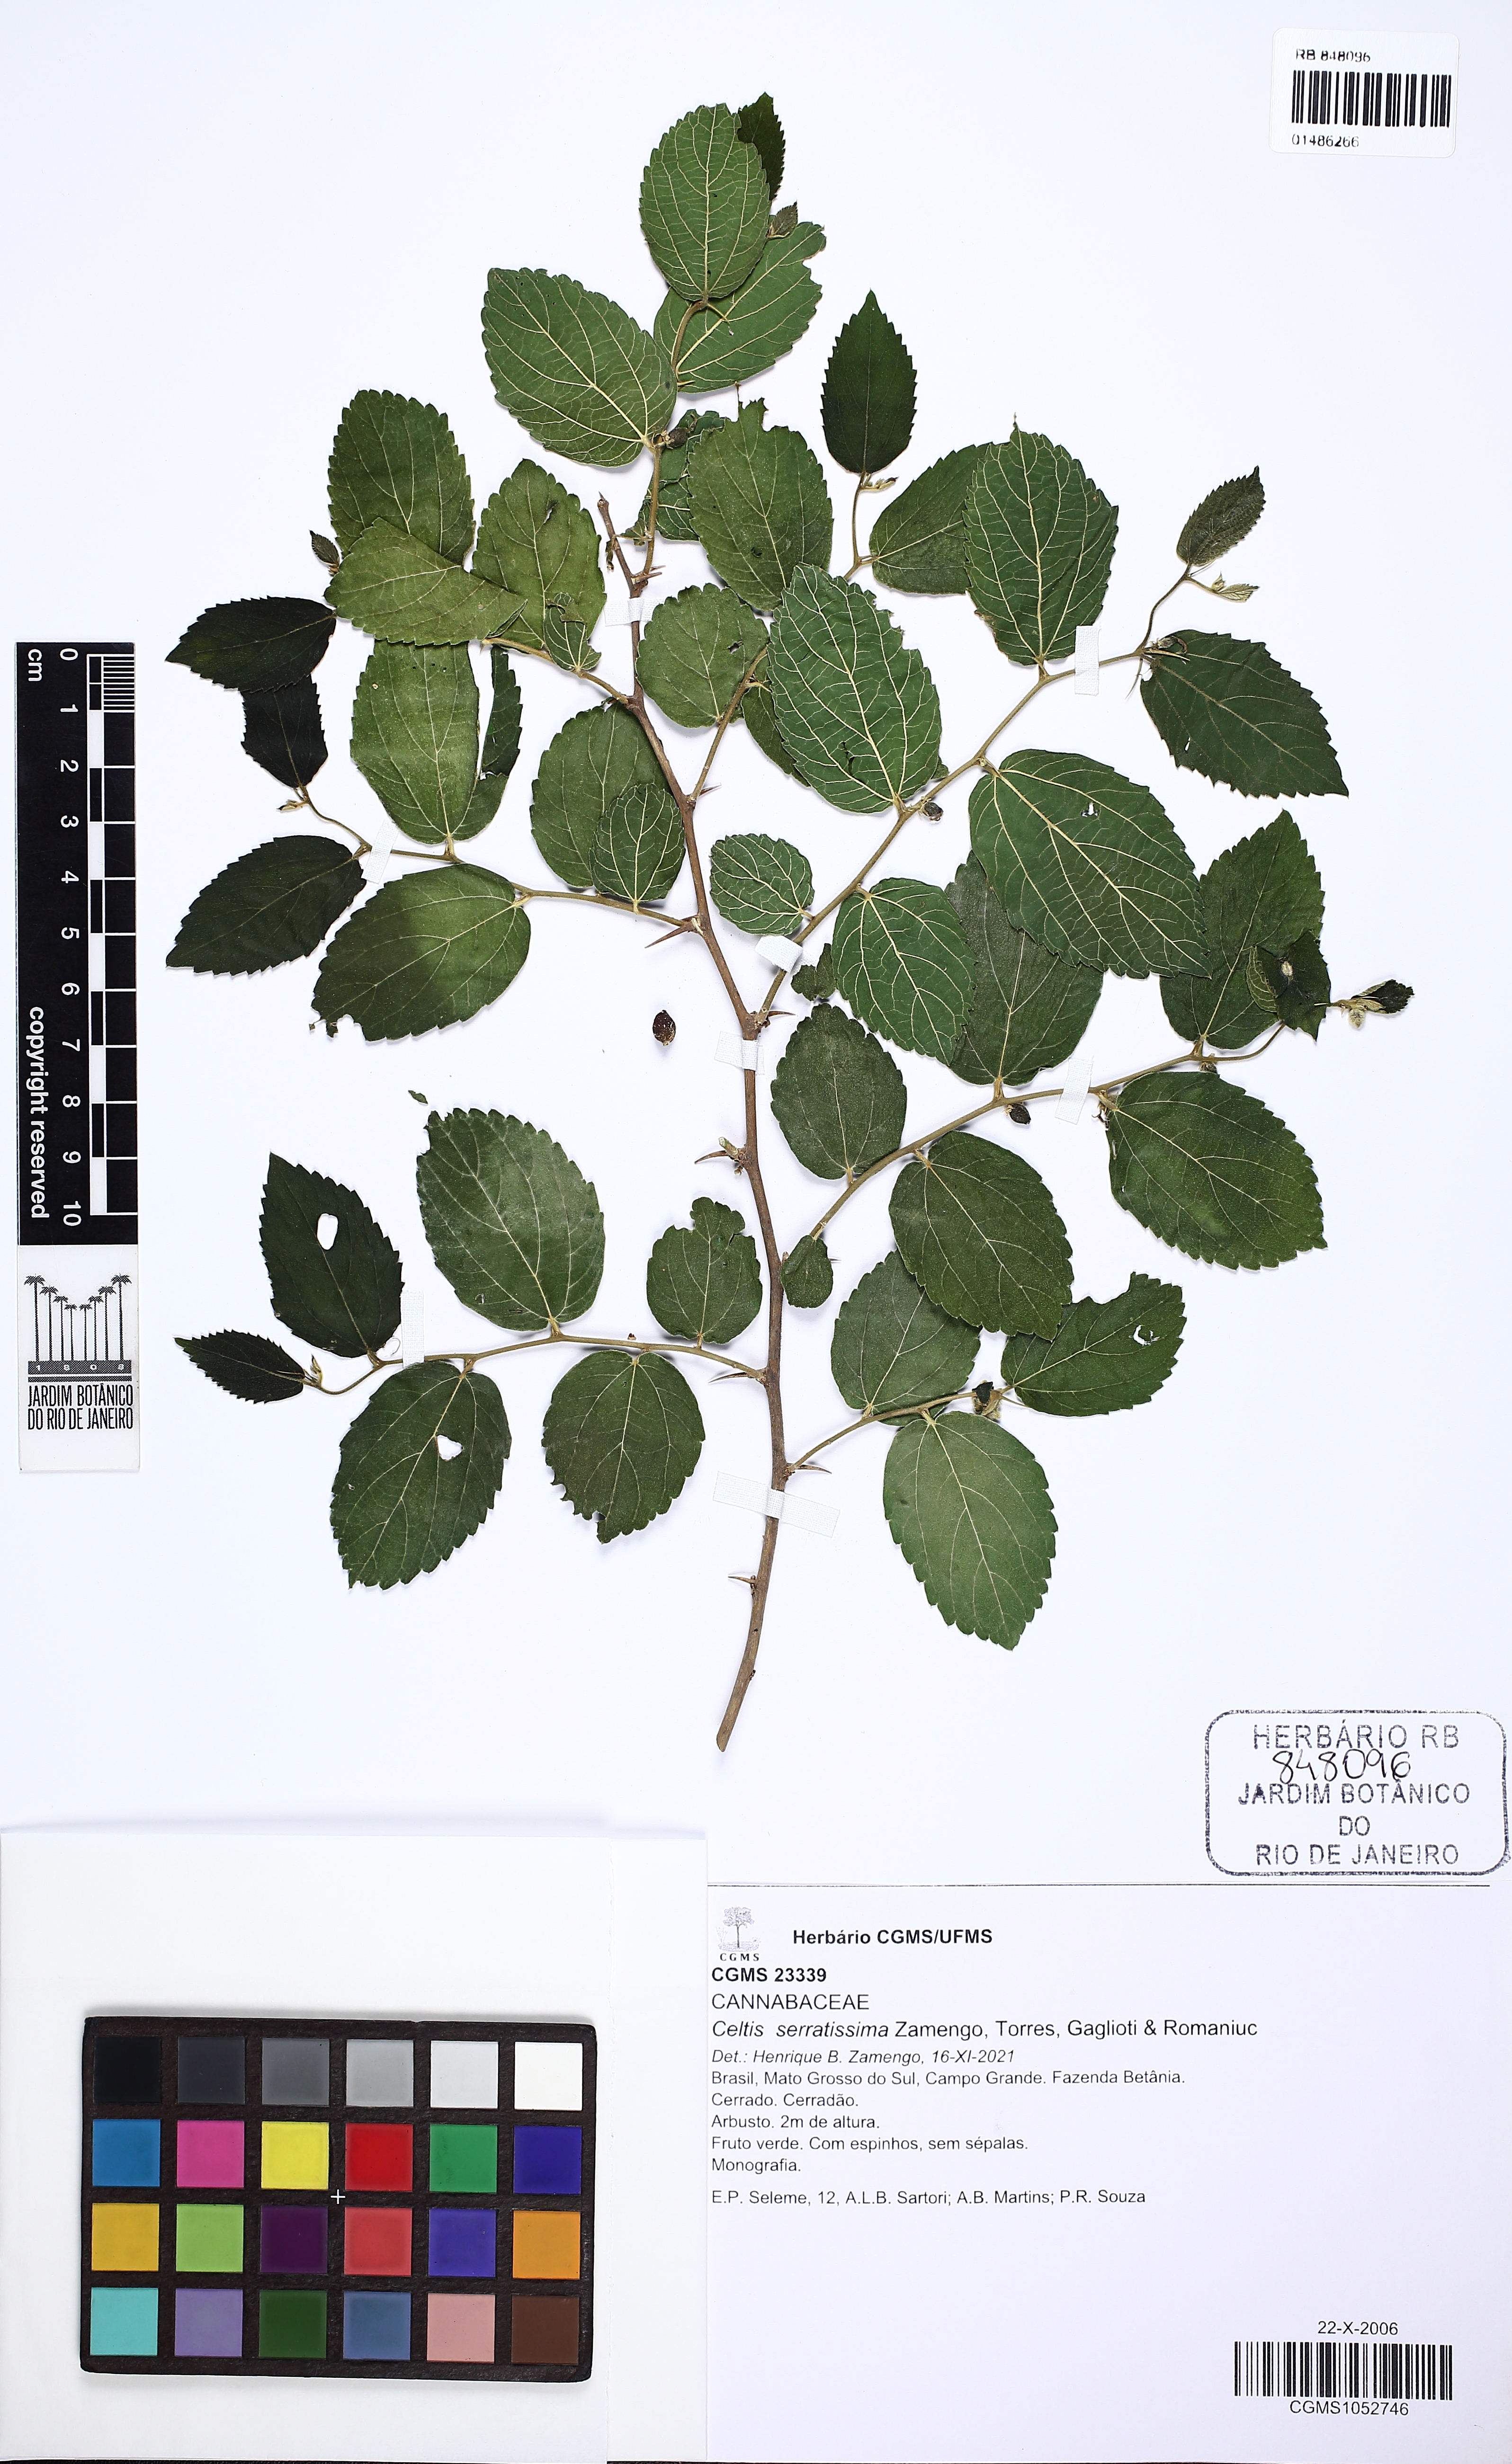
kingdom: Plantae
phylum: Tracheophyta
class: Magnoliopsida
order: Rosales
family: Cannabaceae
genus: Celtis
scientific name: Celtis serratissima
